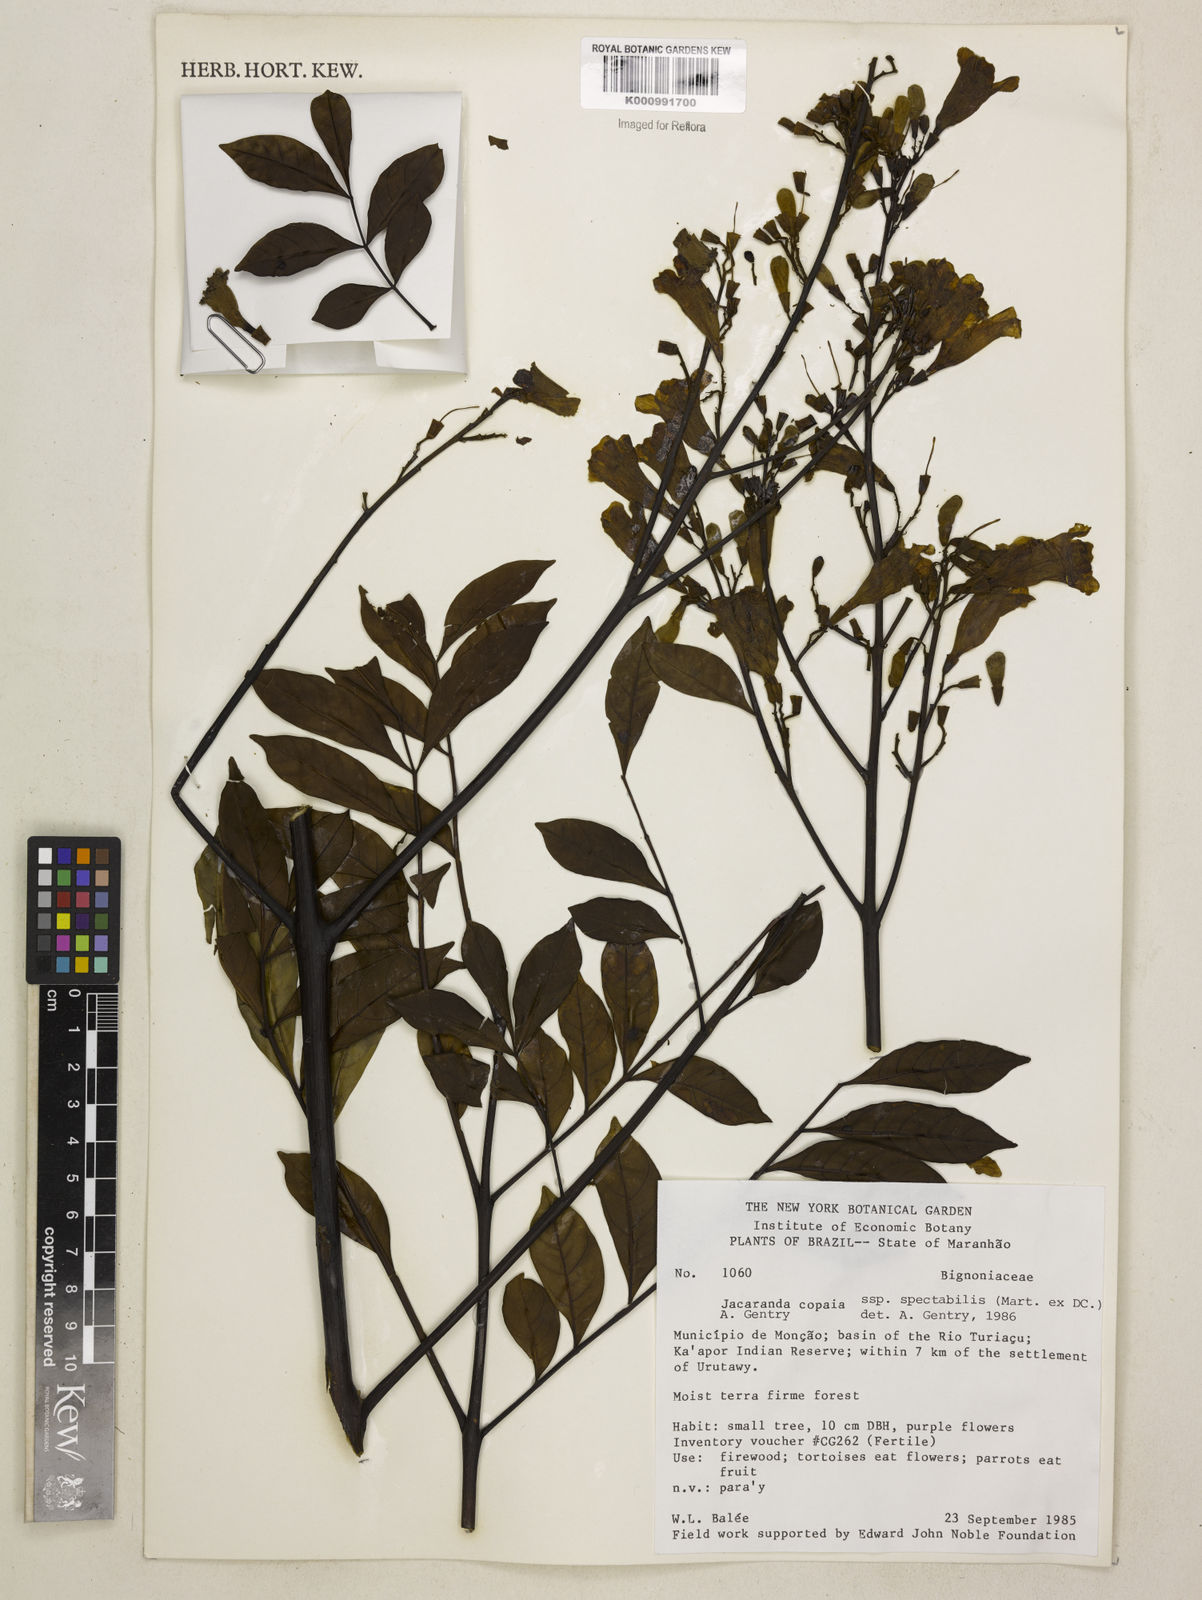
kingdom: Plantae
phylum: Tracheophyta
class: Magnoliopsida
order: Lamiales
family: Bignoniaceae
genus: Jacaranda
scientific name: Jacaranda copaia
